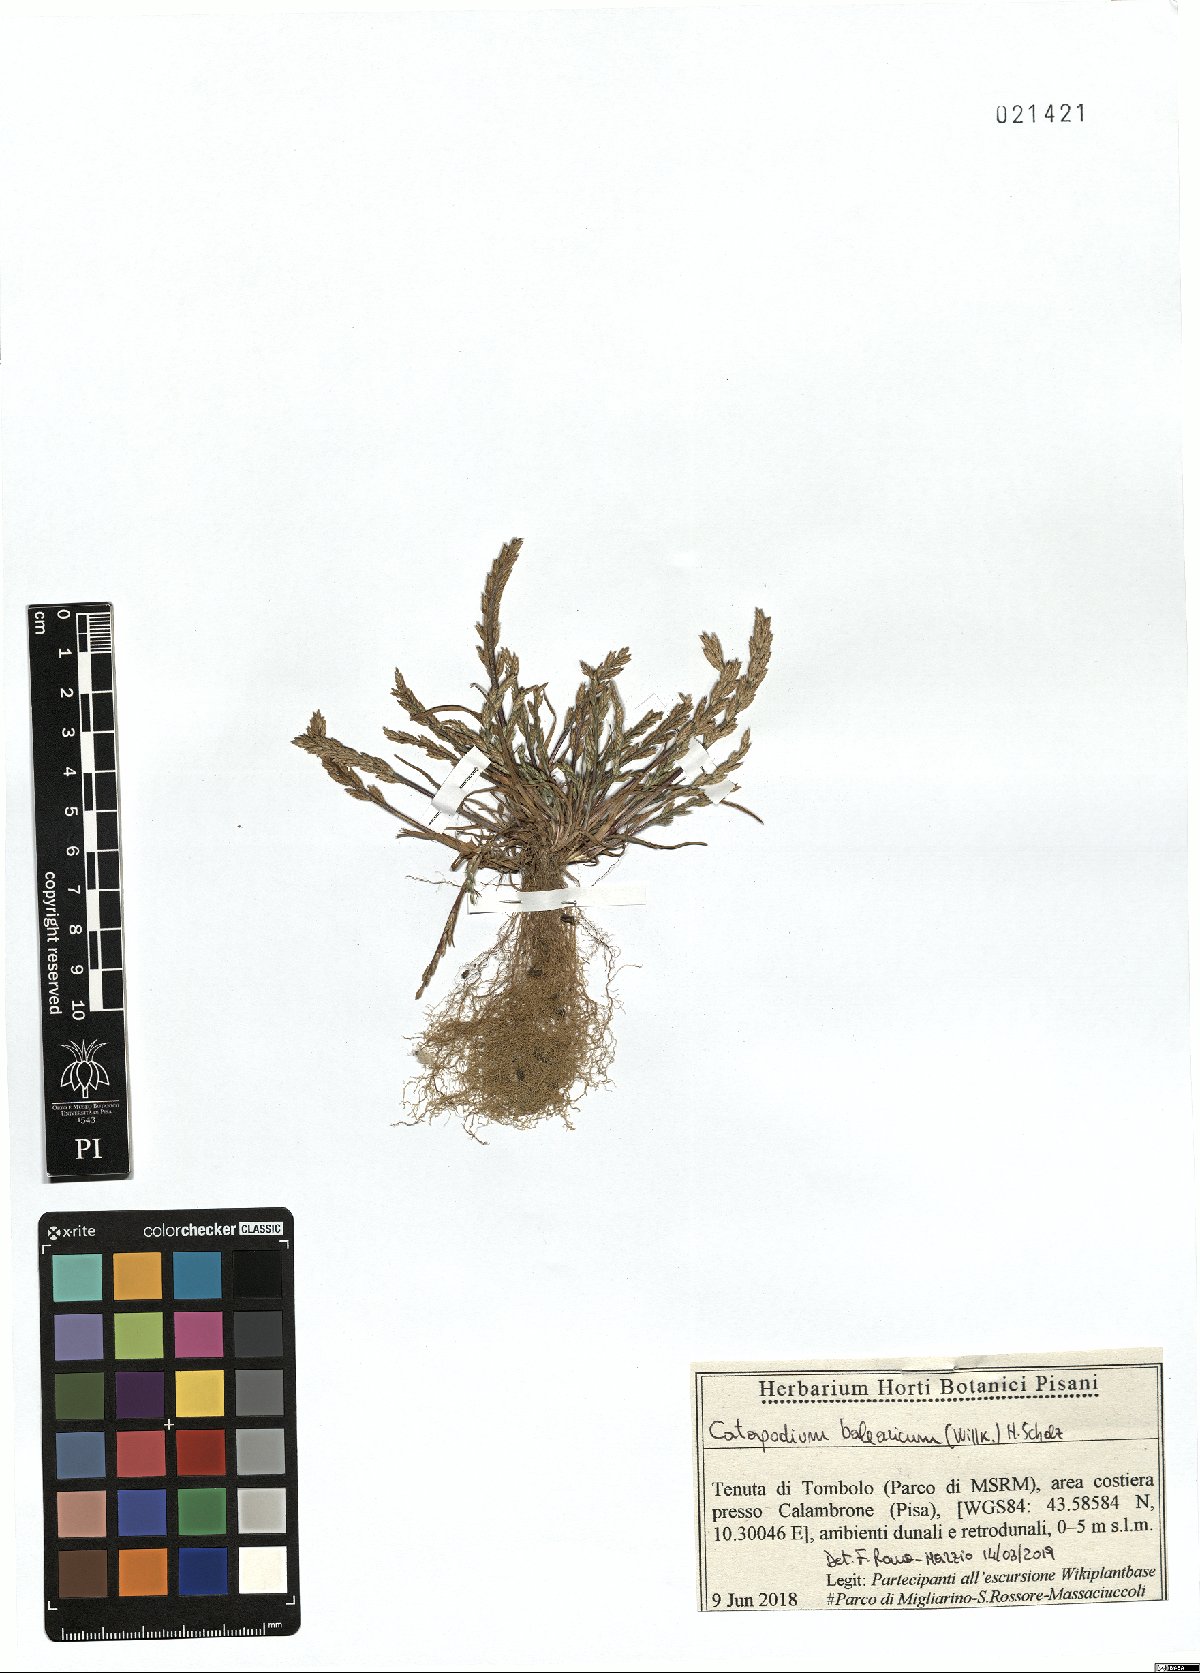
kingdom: Plantae
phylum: Tracheophyta
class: Liliopsida
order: Poales
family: Poaceae
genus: Catapodium
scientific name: Catapodium balearicum
